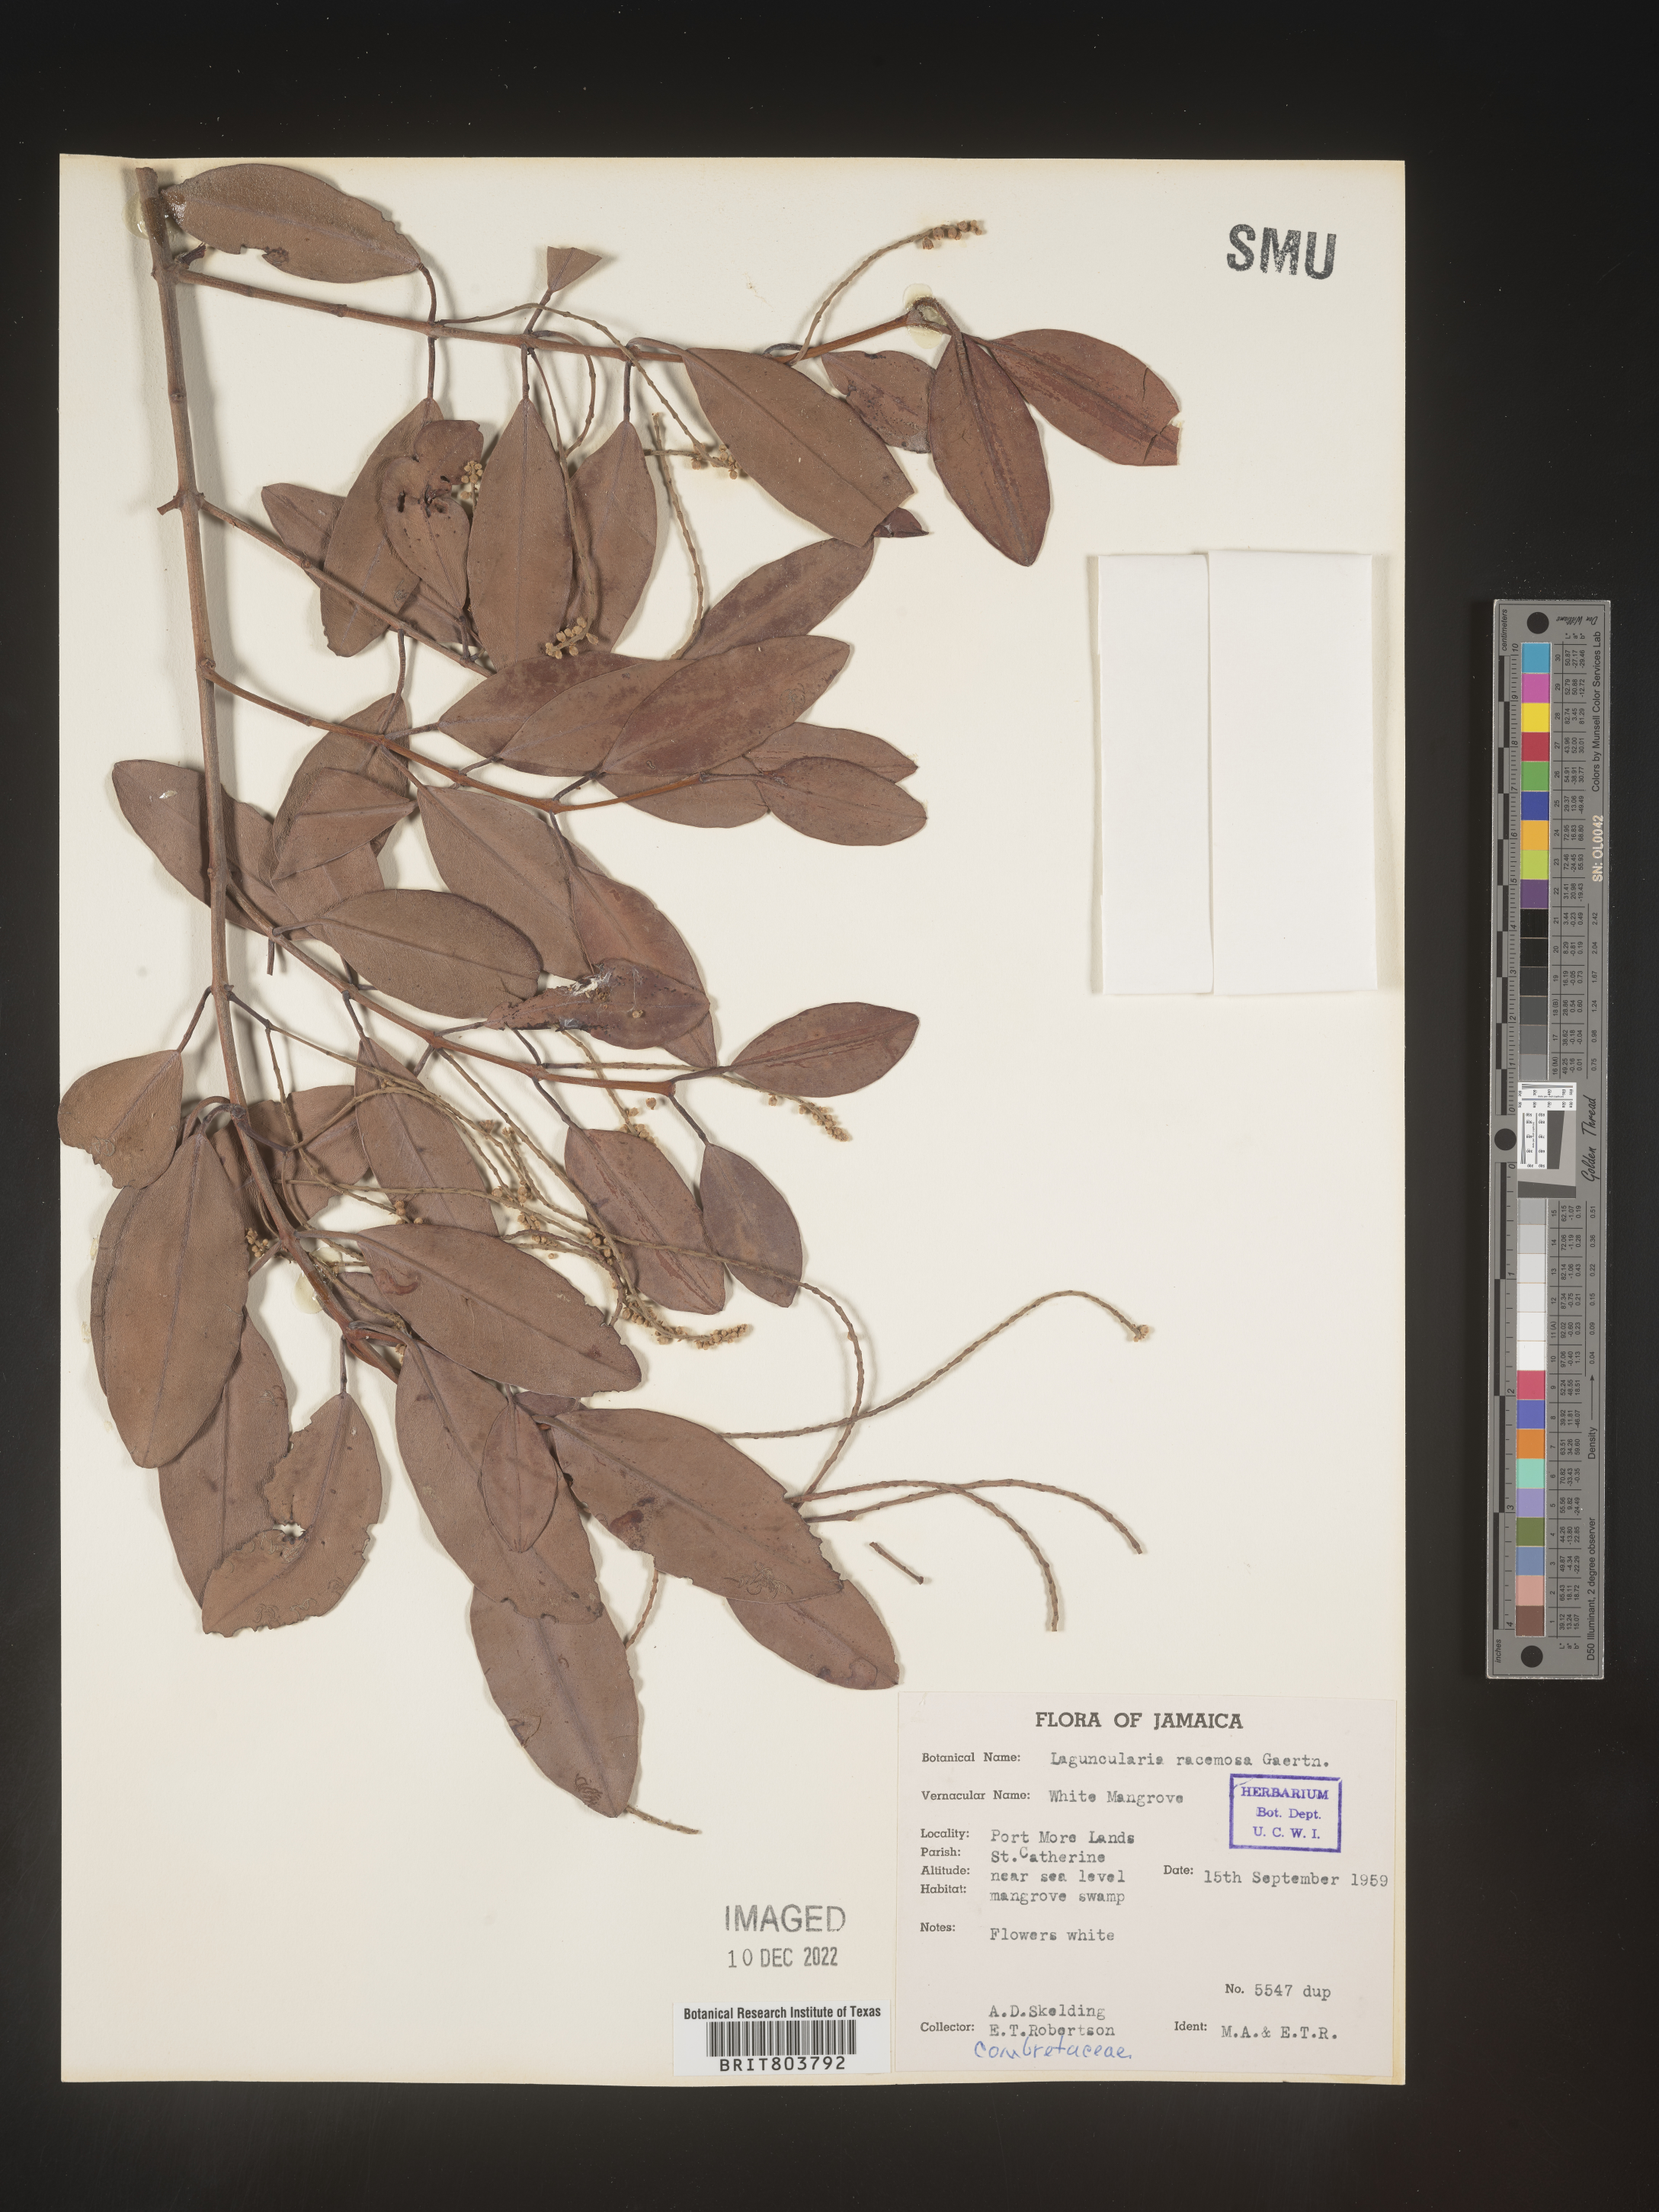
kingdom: Plantae
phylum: Tracheophyta
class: Magnoliopsida
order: Myrtales
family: Combretaceae
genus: Laguncularia
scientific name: Laguncularia
